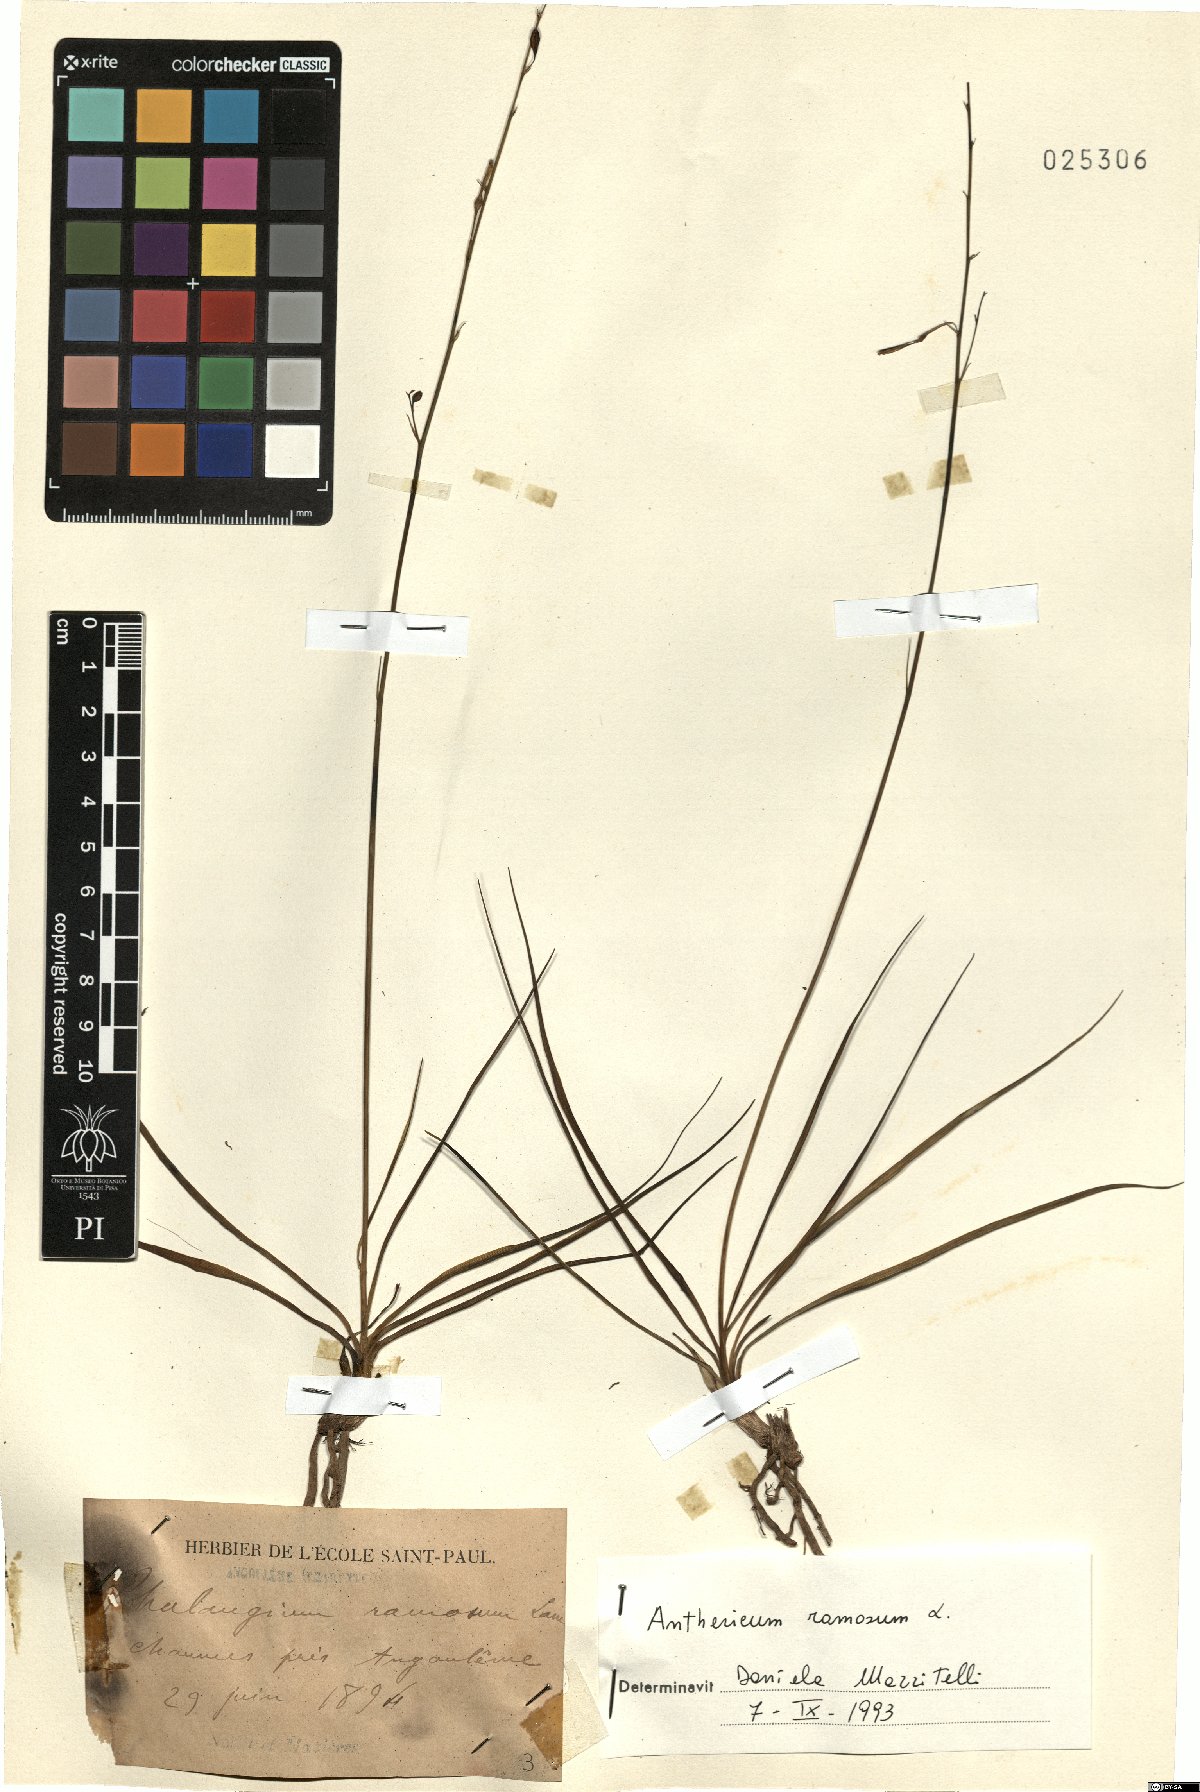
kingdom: Plantae
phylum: Tracheophyta
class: Liliopsida
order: Asparagales
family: Asparagaceae
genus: Anthericum
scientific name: Anthericum ramosum
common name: Branched st. bernard's-lily
